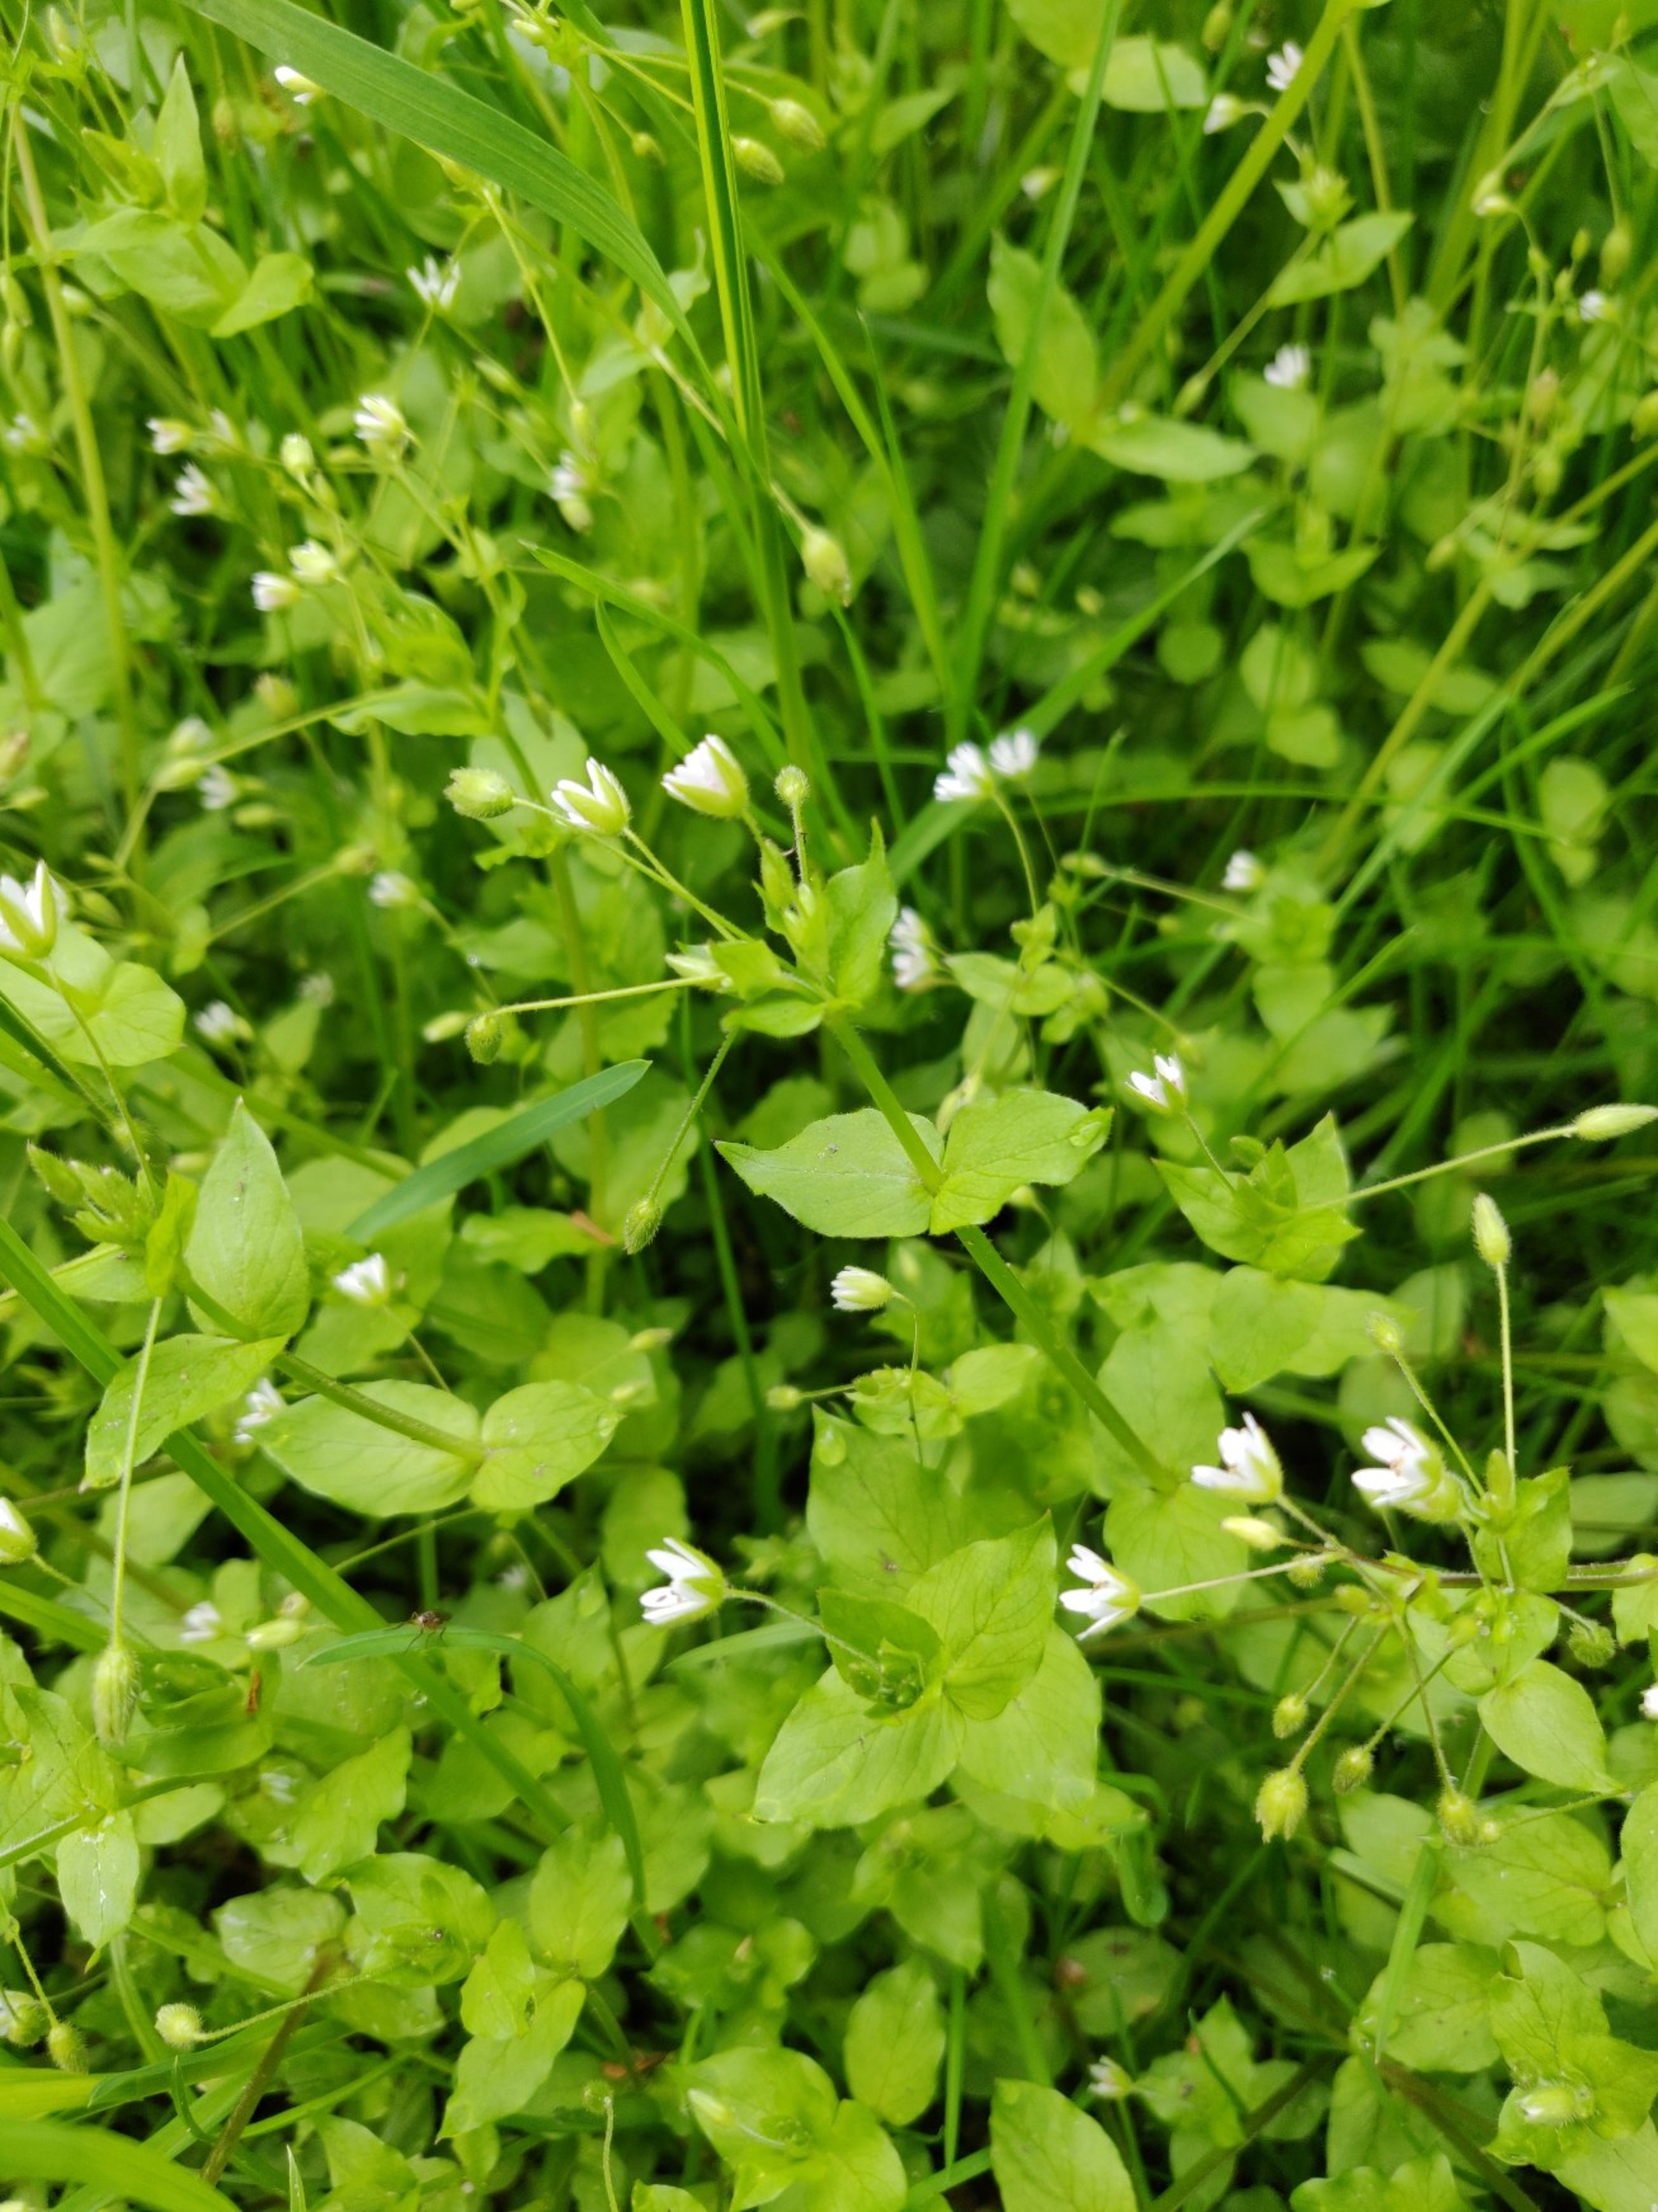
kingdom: Plantae
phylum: Tracheophyta
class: Magnoliopsida
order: Caryophyllales
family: Caryophyllaceae
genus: Stellaria
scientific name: Stellaria media
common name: Almindelig fuglegræs
